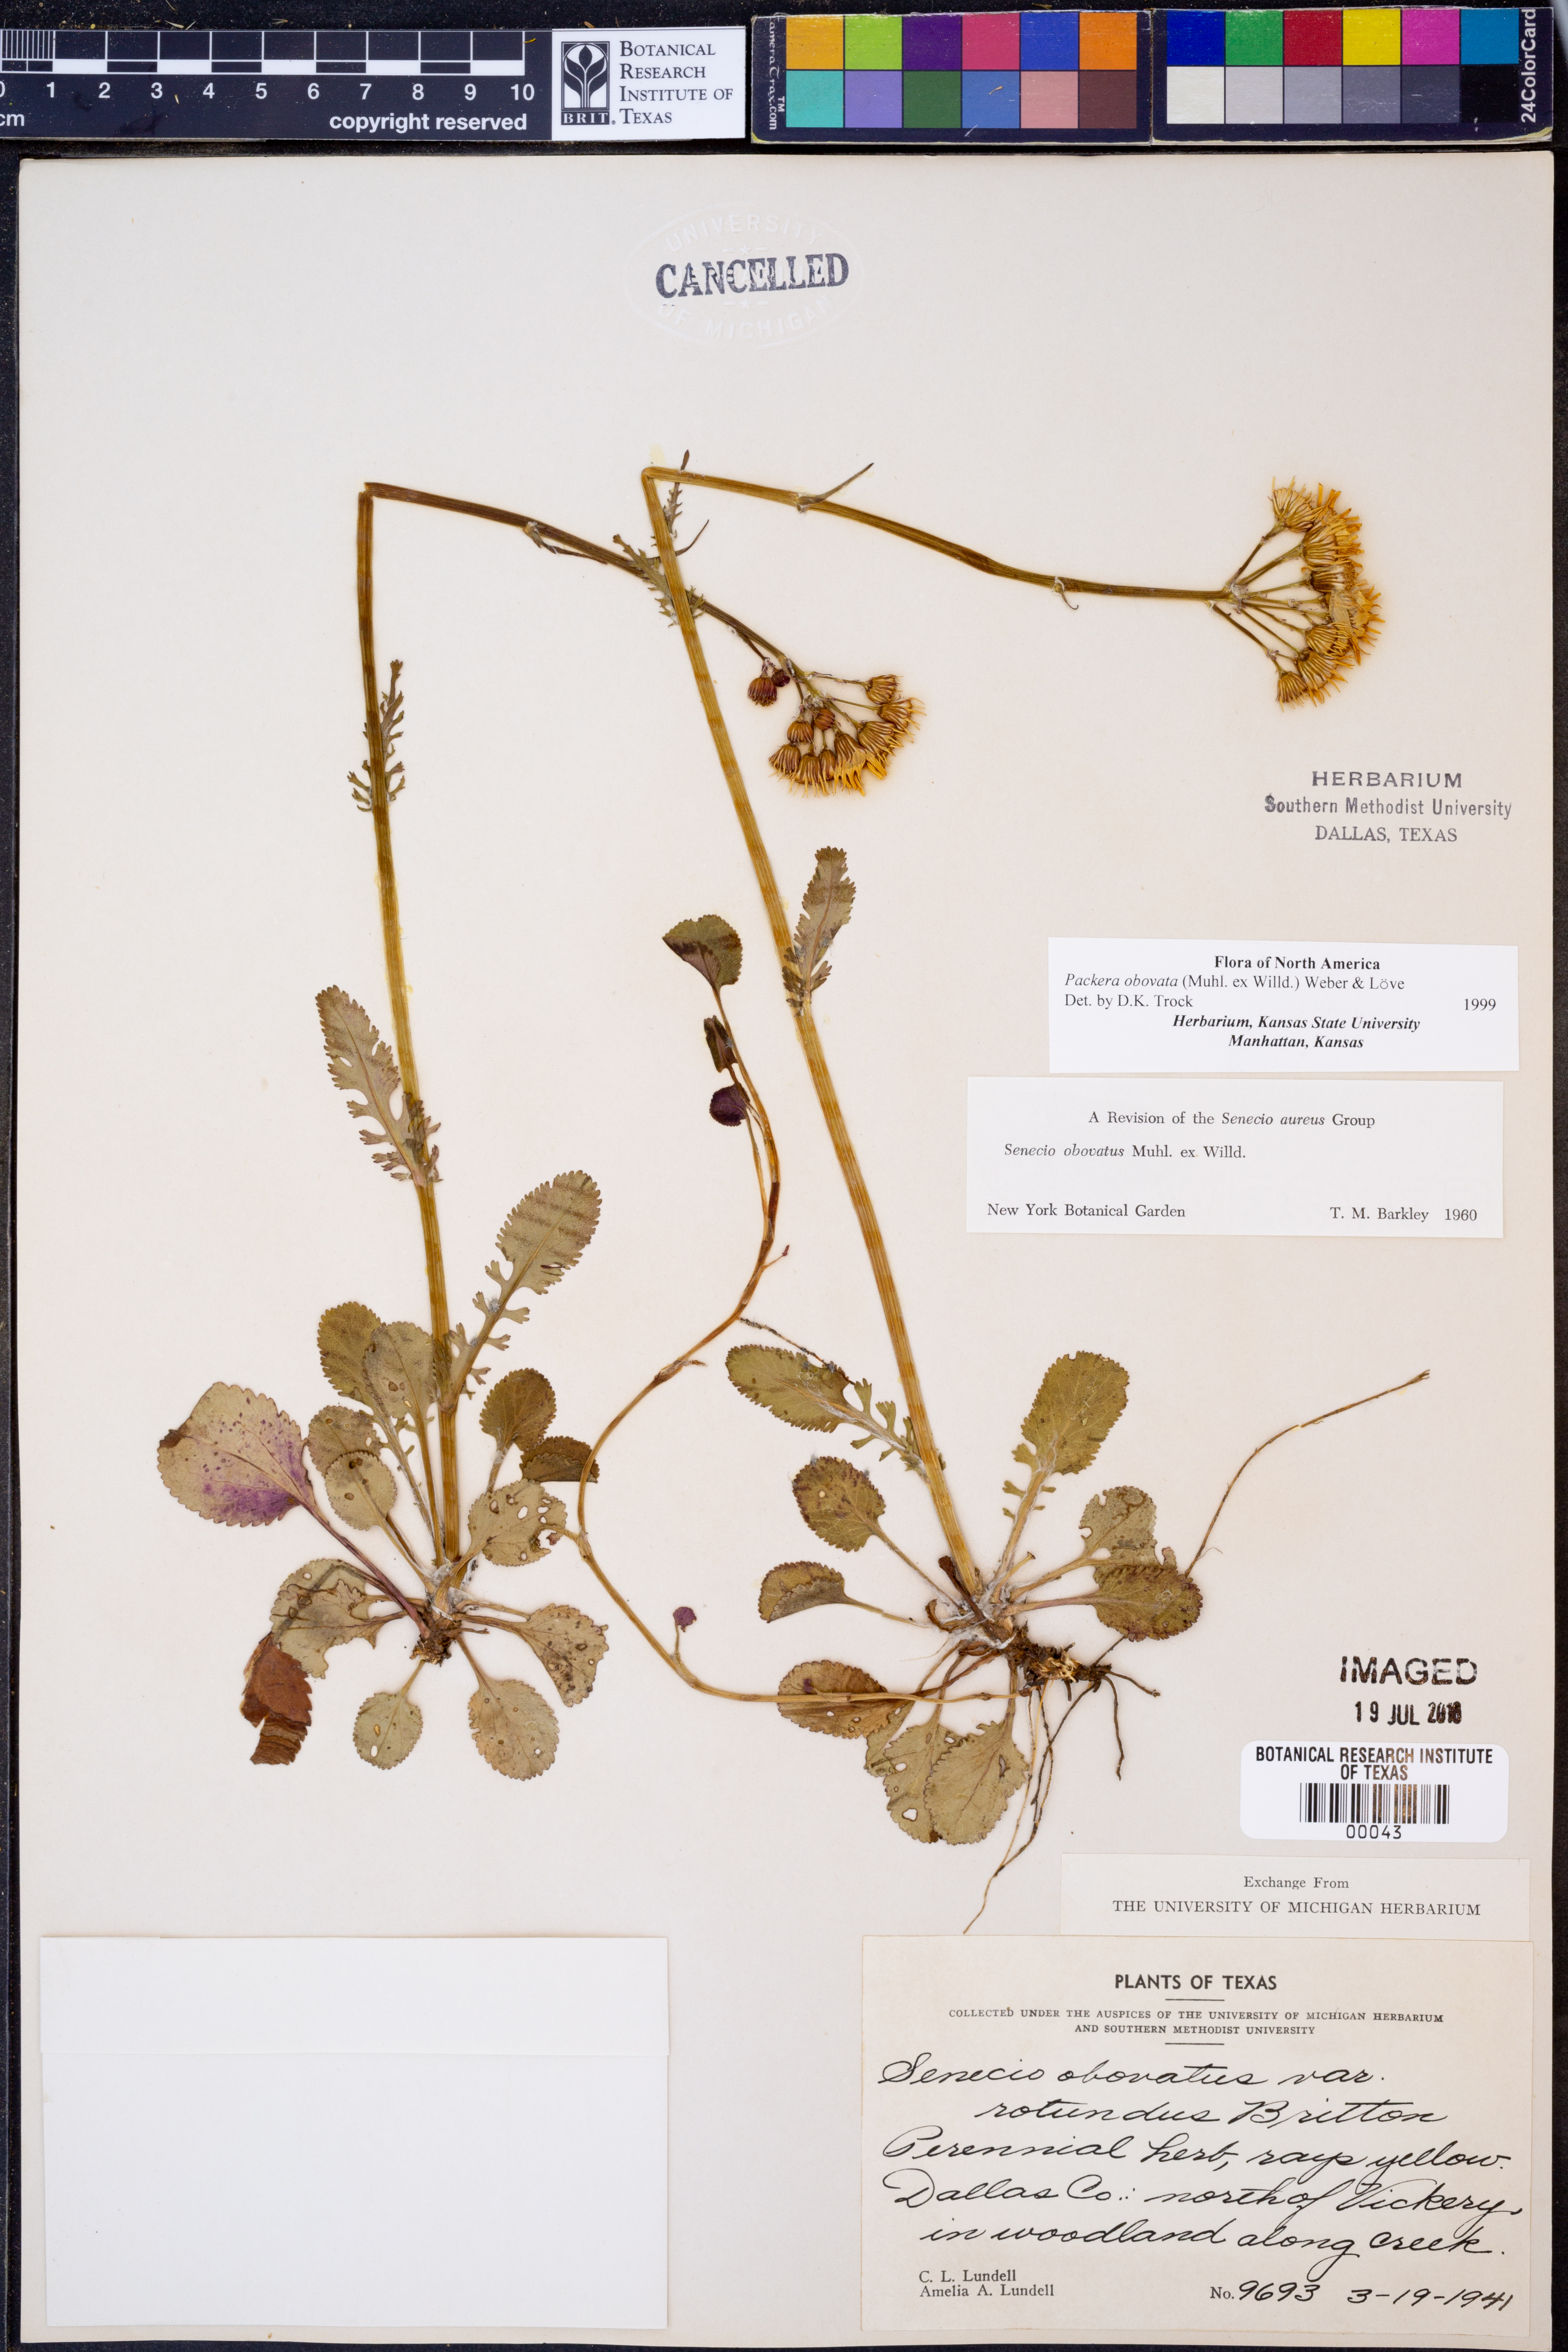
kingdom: Plantae
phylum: Tracheophyta
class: Magnoliopsida
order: Asterales
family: Asteraceae
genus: Packera
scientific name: Packera obovata
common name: Round-leaf ragwort
